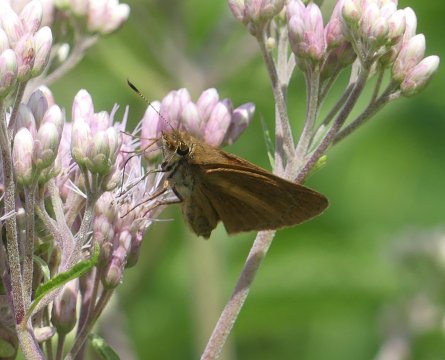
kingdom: Animalia
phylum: Arthropoda
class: Insecta
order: Lepidoptera
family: Hesperiidae
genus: Poanes
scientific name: Poanes viator
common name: Broad-winged Skipper
